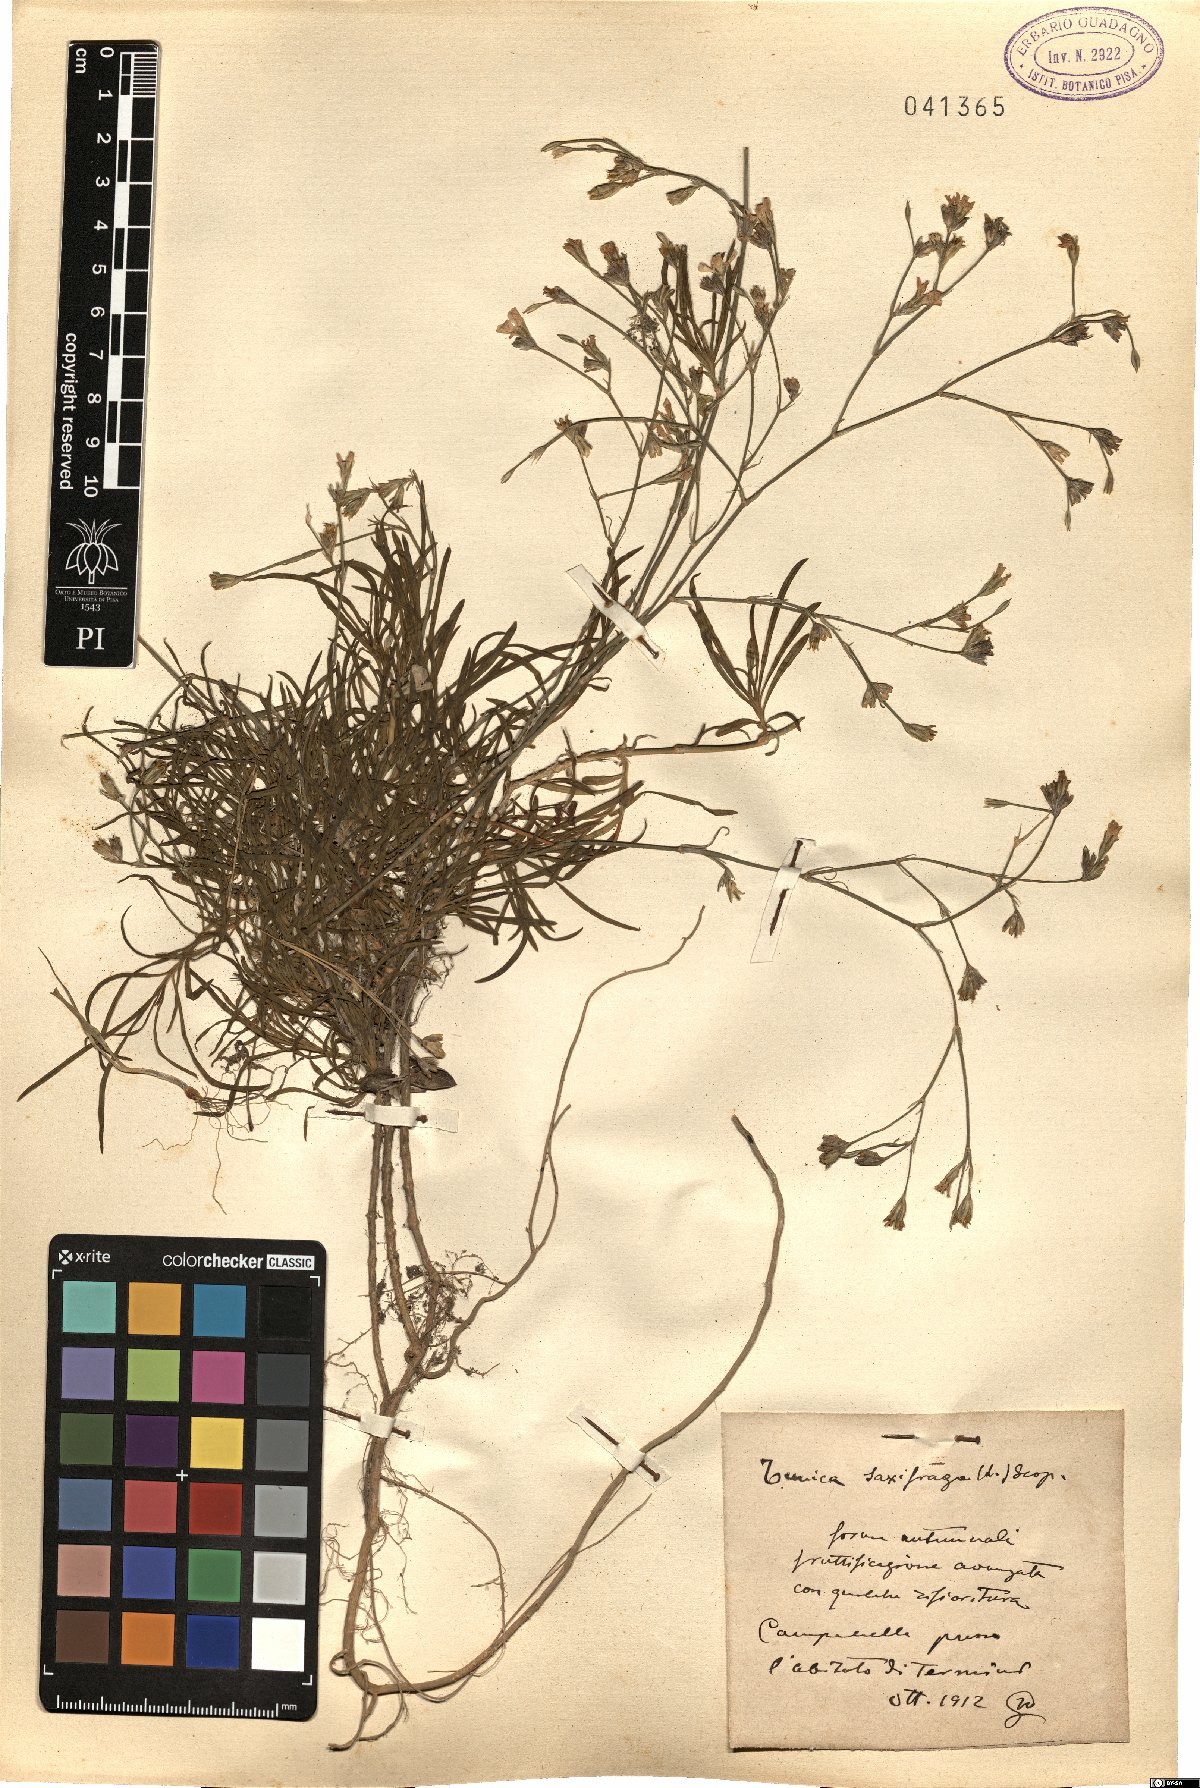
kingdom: Plantae
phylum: Tracheophyta
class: Magnoliopsida
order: Caryophyllales
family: Caryophyllaceae
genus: Petrorhagia
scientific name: Petrorhagia saxifraga
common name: Tunicflower
